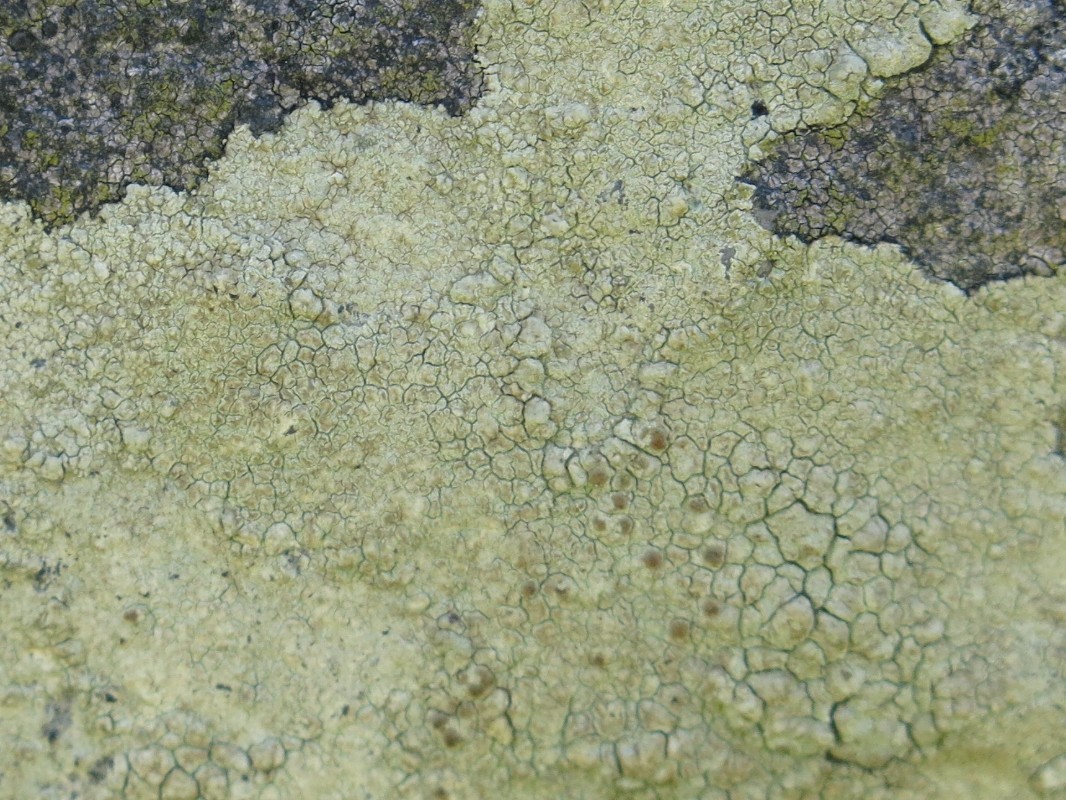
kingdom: Fungi
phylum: Ascomycota
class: Lecanoromycetes
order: Lecanorales
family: Lecanoraceae
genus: Glaucomaria
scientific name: Glaucomaria sulphurea
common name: svovlgul kantskivelav
